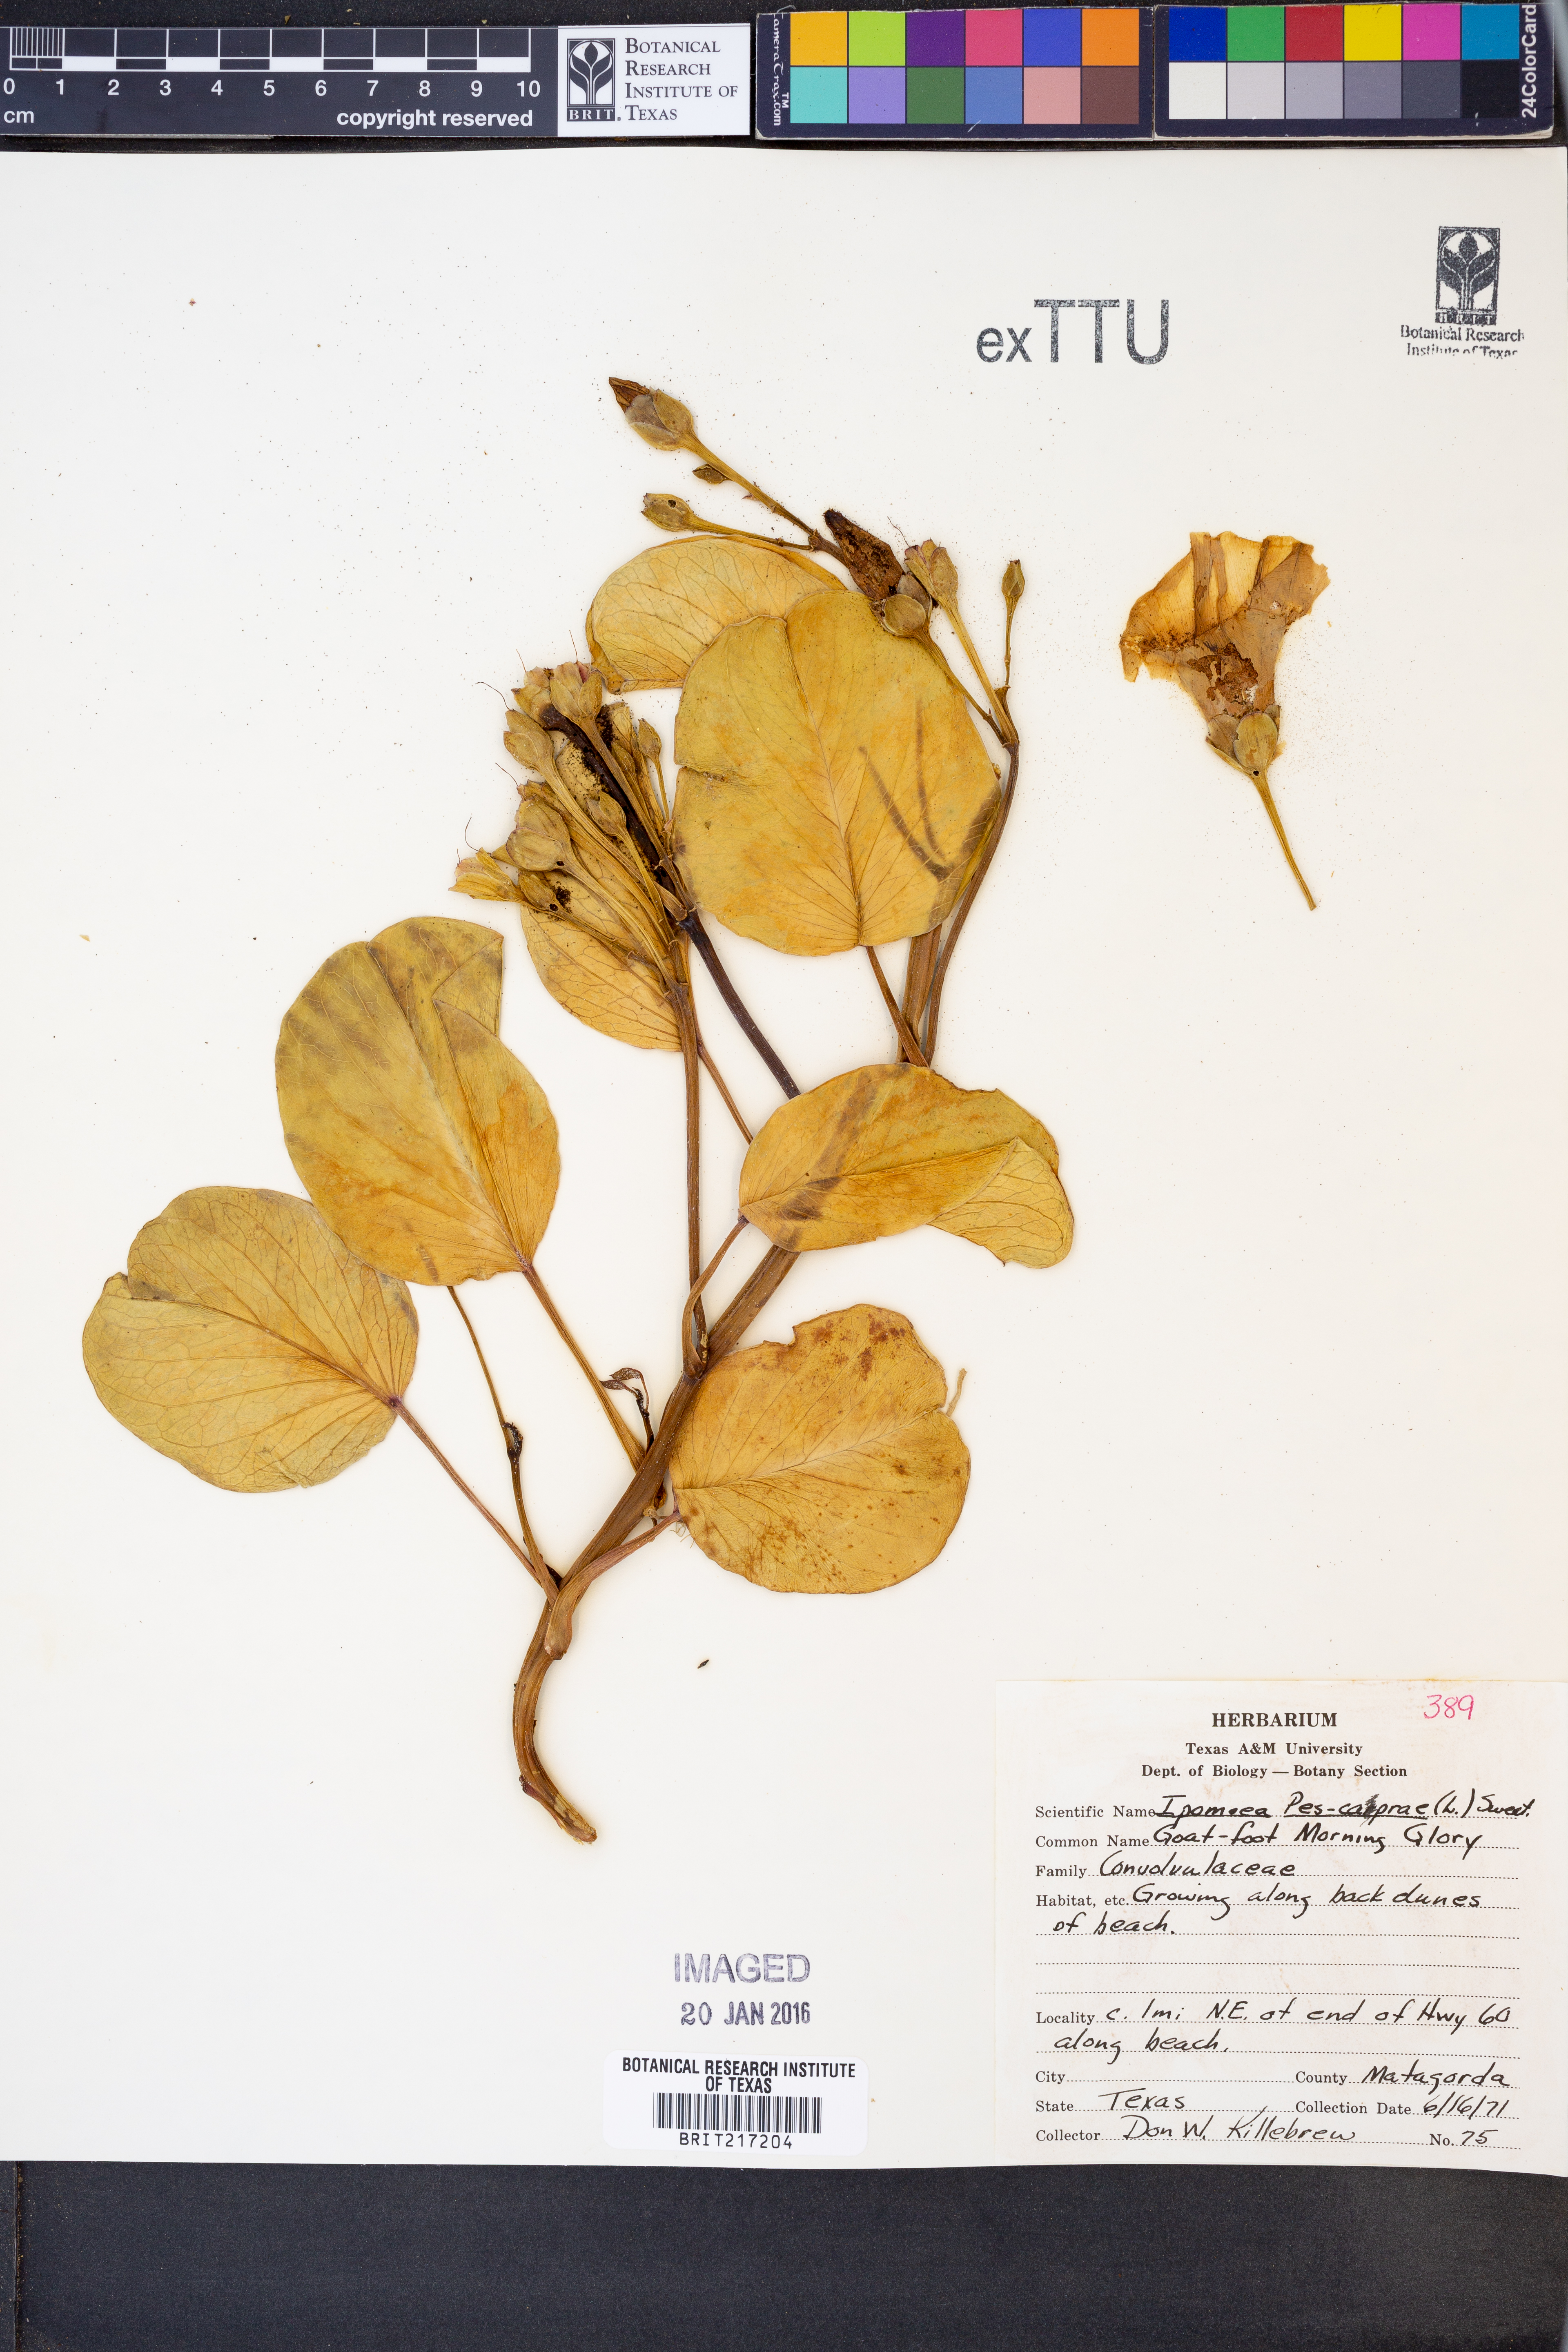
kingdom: Plantae
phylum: Tracheophyta
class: Magnoliopsida
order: Solanales
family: Convolvulaceae
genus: Ipomoea
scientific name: Ipomoea pes-caprae
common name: Beach morning glory
